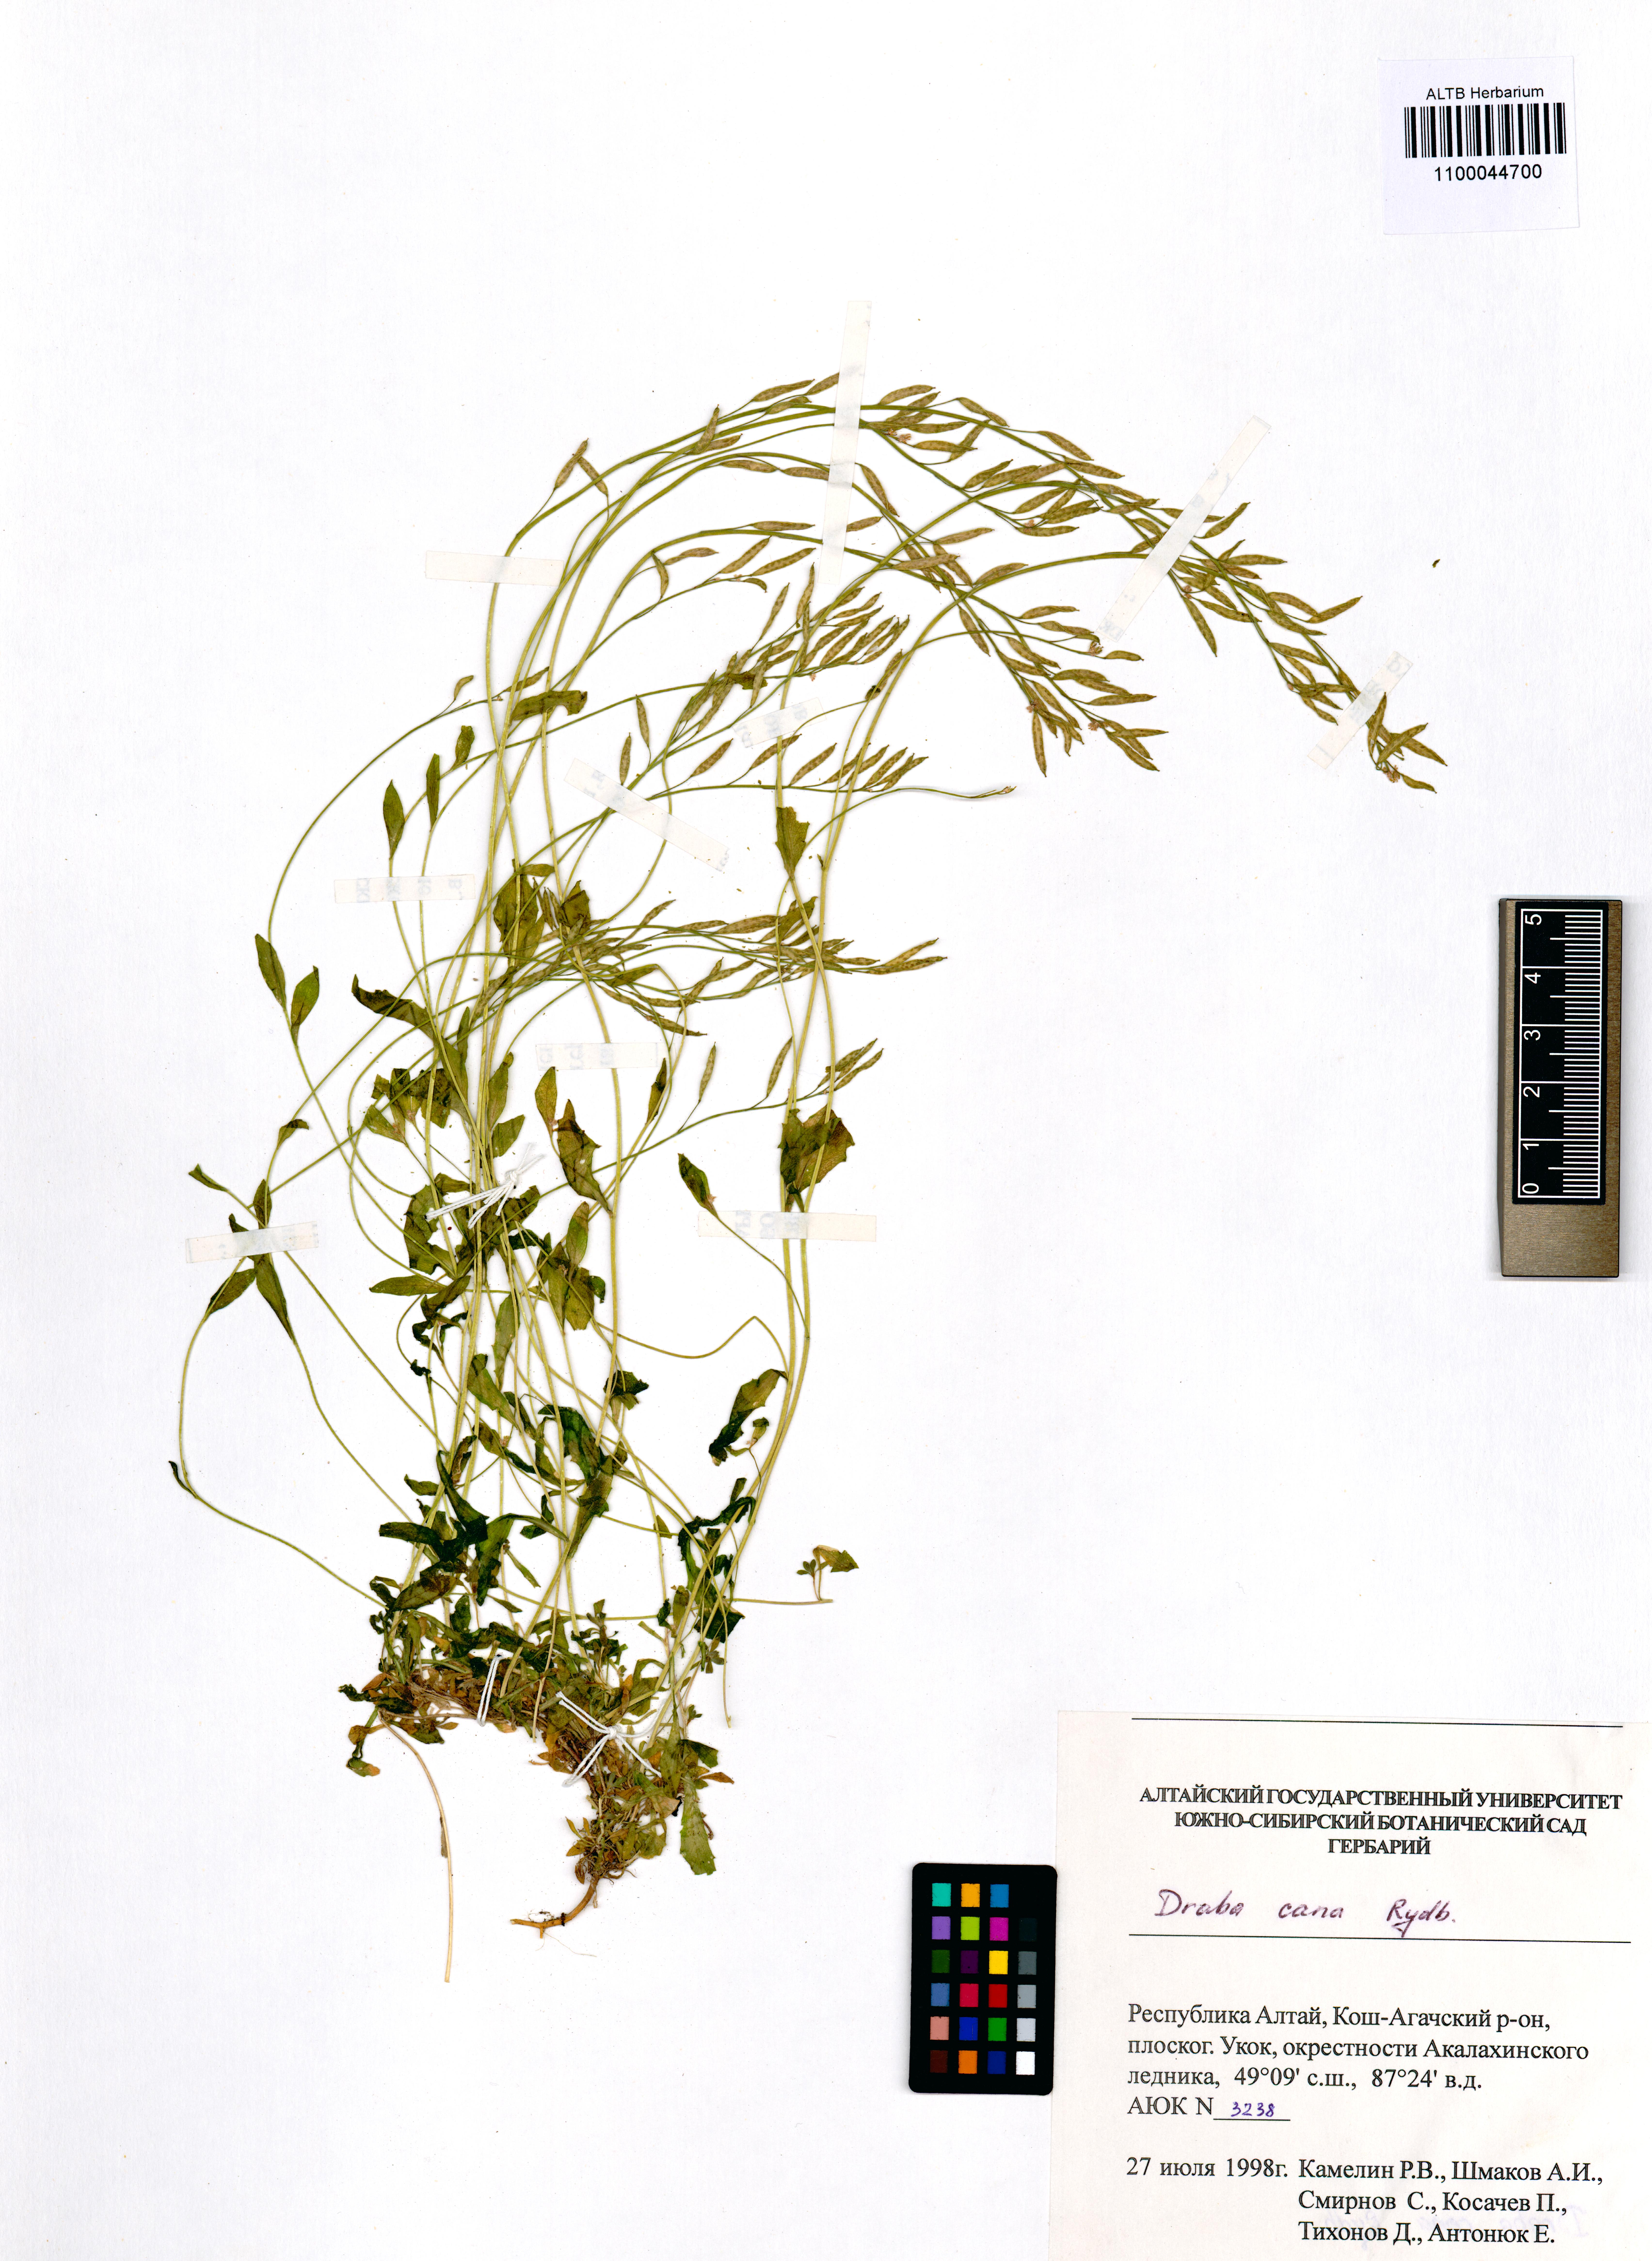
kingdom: Plantae
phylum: Tracheophyta
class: Magnoliopsida
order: Brassicales
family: Brassicaceae
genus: Draba
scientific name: Draba cana
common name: Hoary draba
